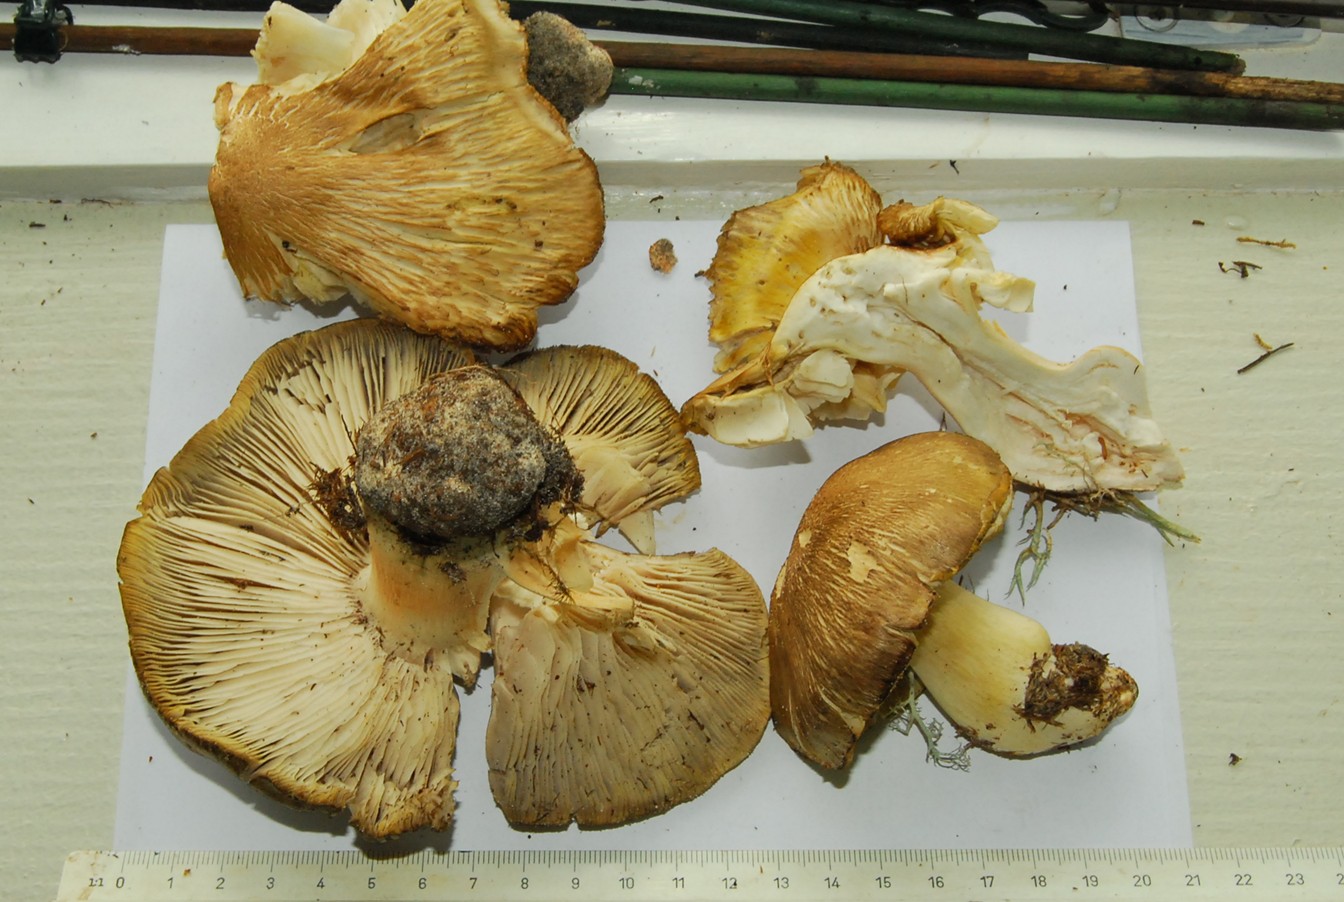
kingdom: Fungi
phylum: Basidiomycota
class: Agaricomycetes
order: Agaricales
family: Tricholomataceae
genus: Tricholoma
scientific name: Tricholoma arvernense
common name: kantet ridderhat
